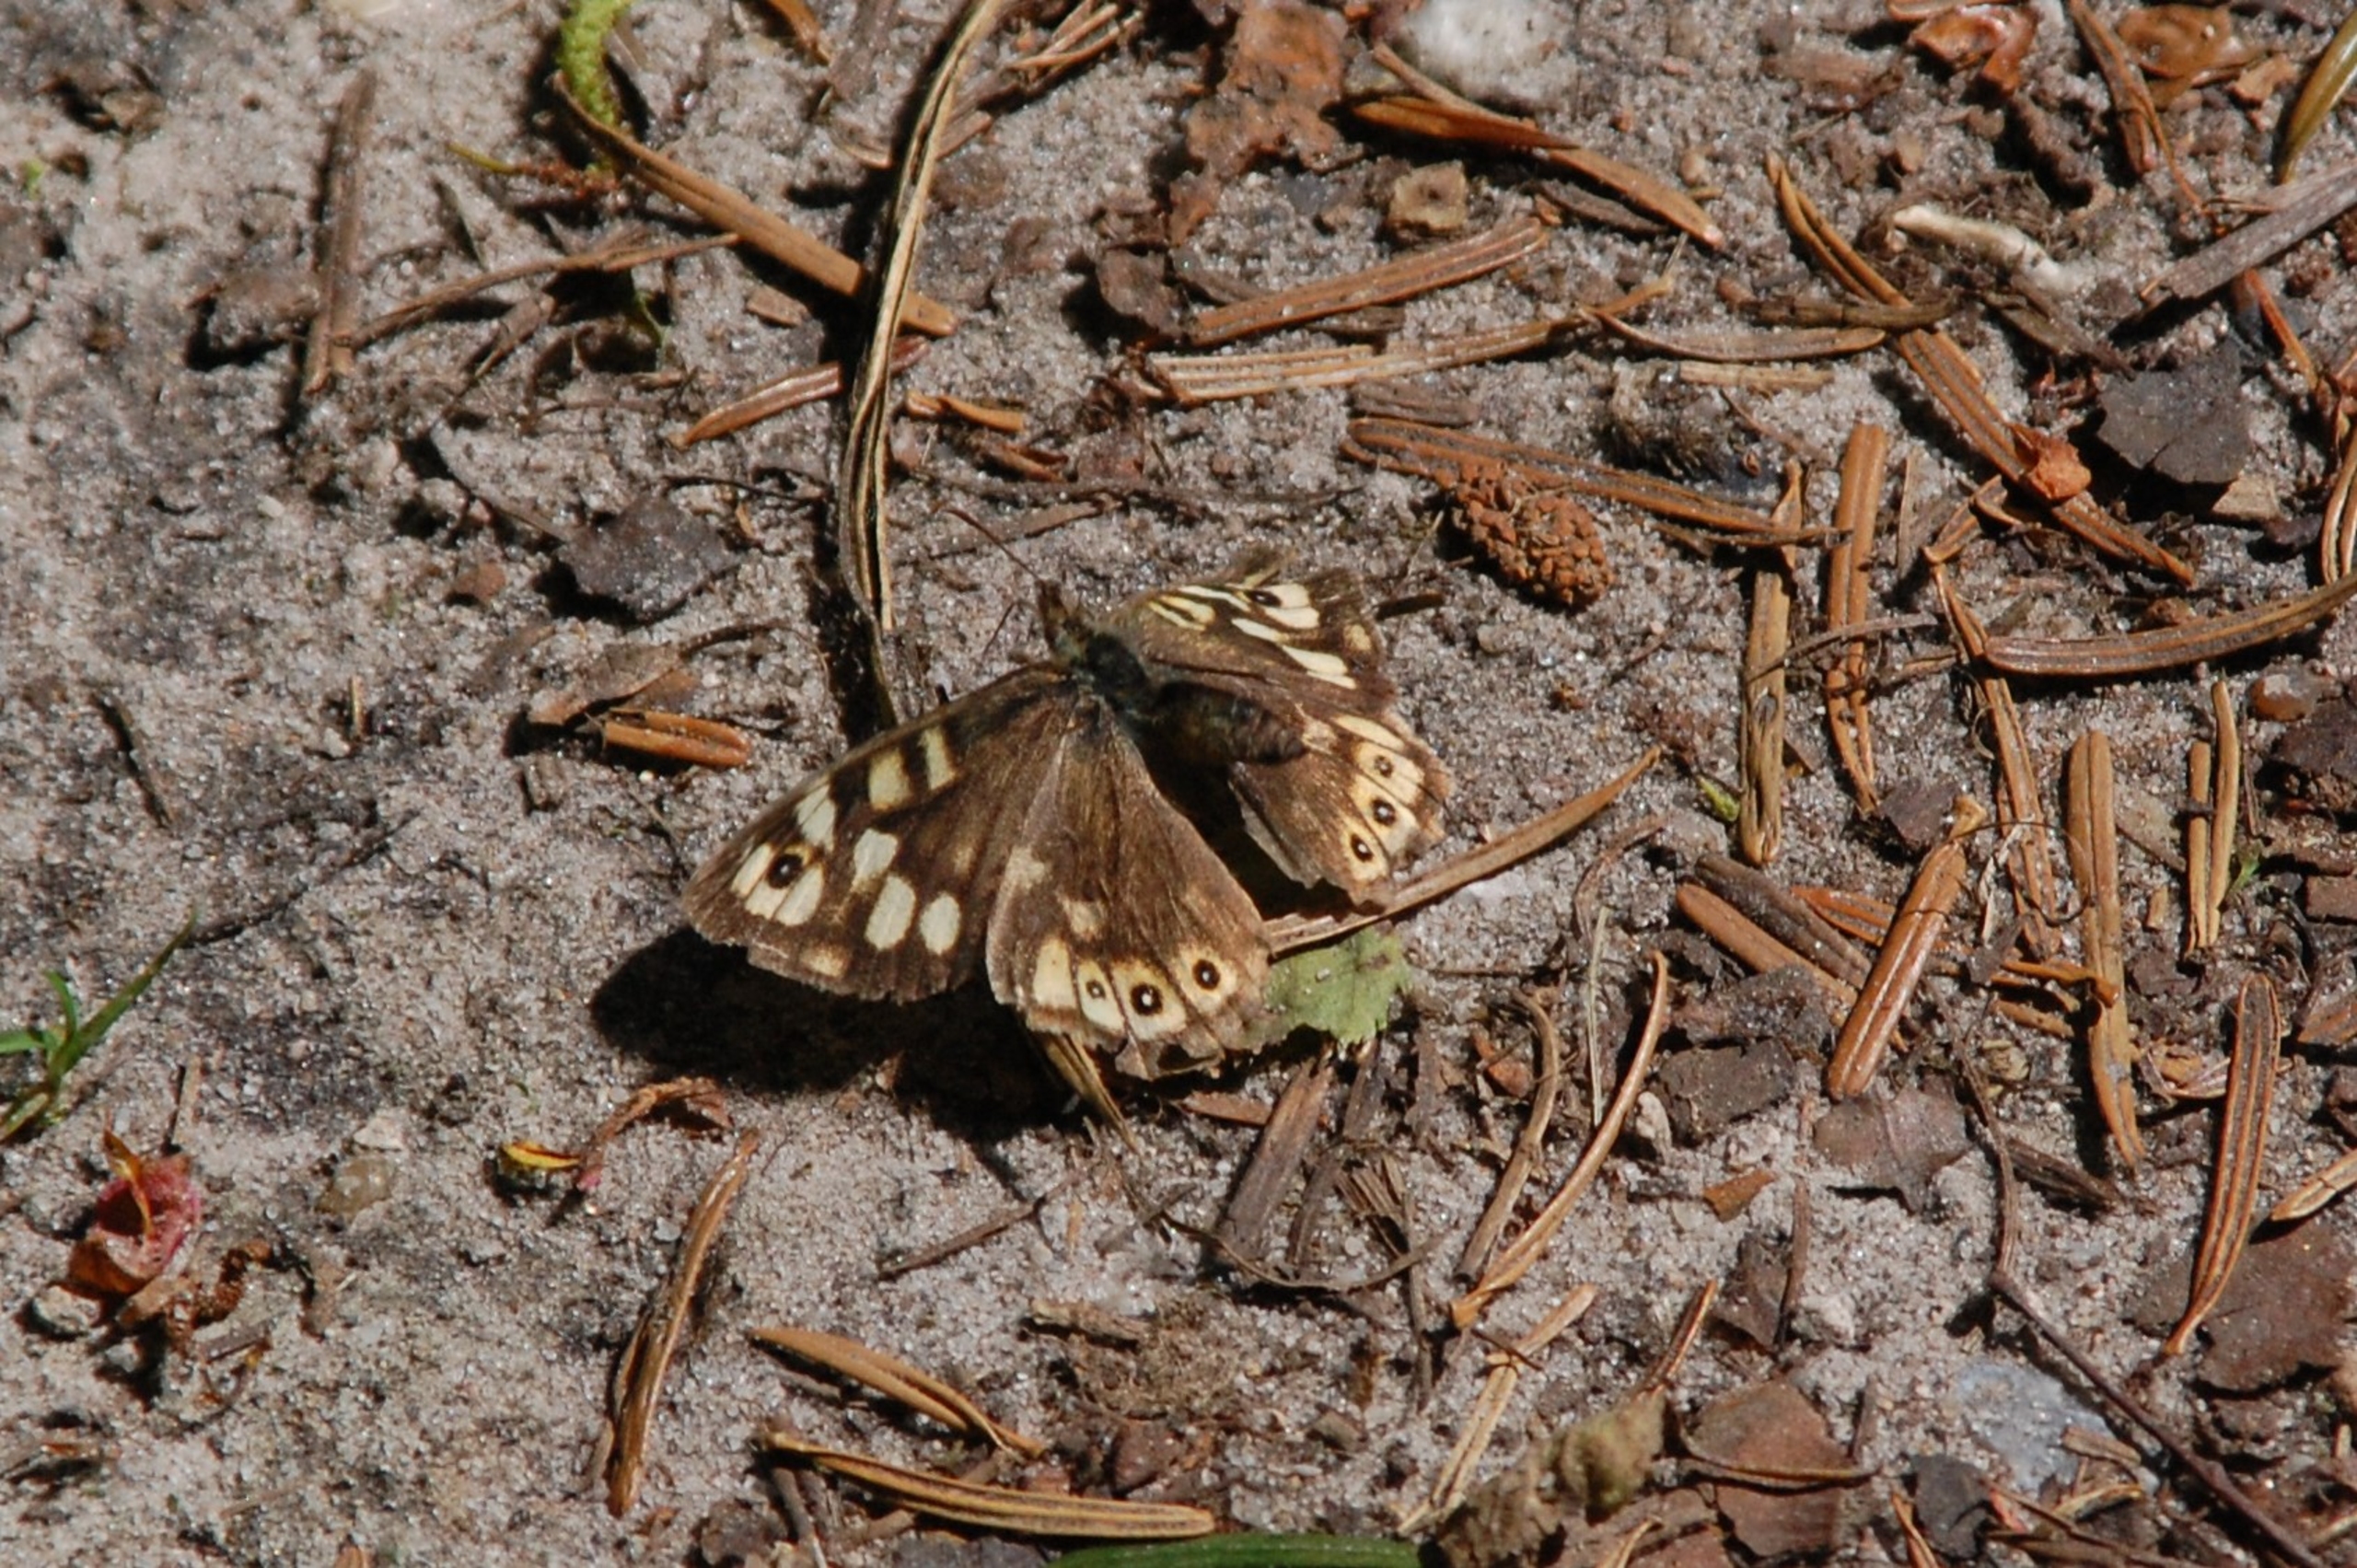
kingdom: Animalia
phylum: Arthropoda
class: Insecta
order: Lepidoptera
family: Nymphalidae
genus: Pararge
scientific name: Pararge aegeria
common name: Skovrandøje
